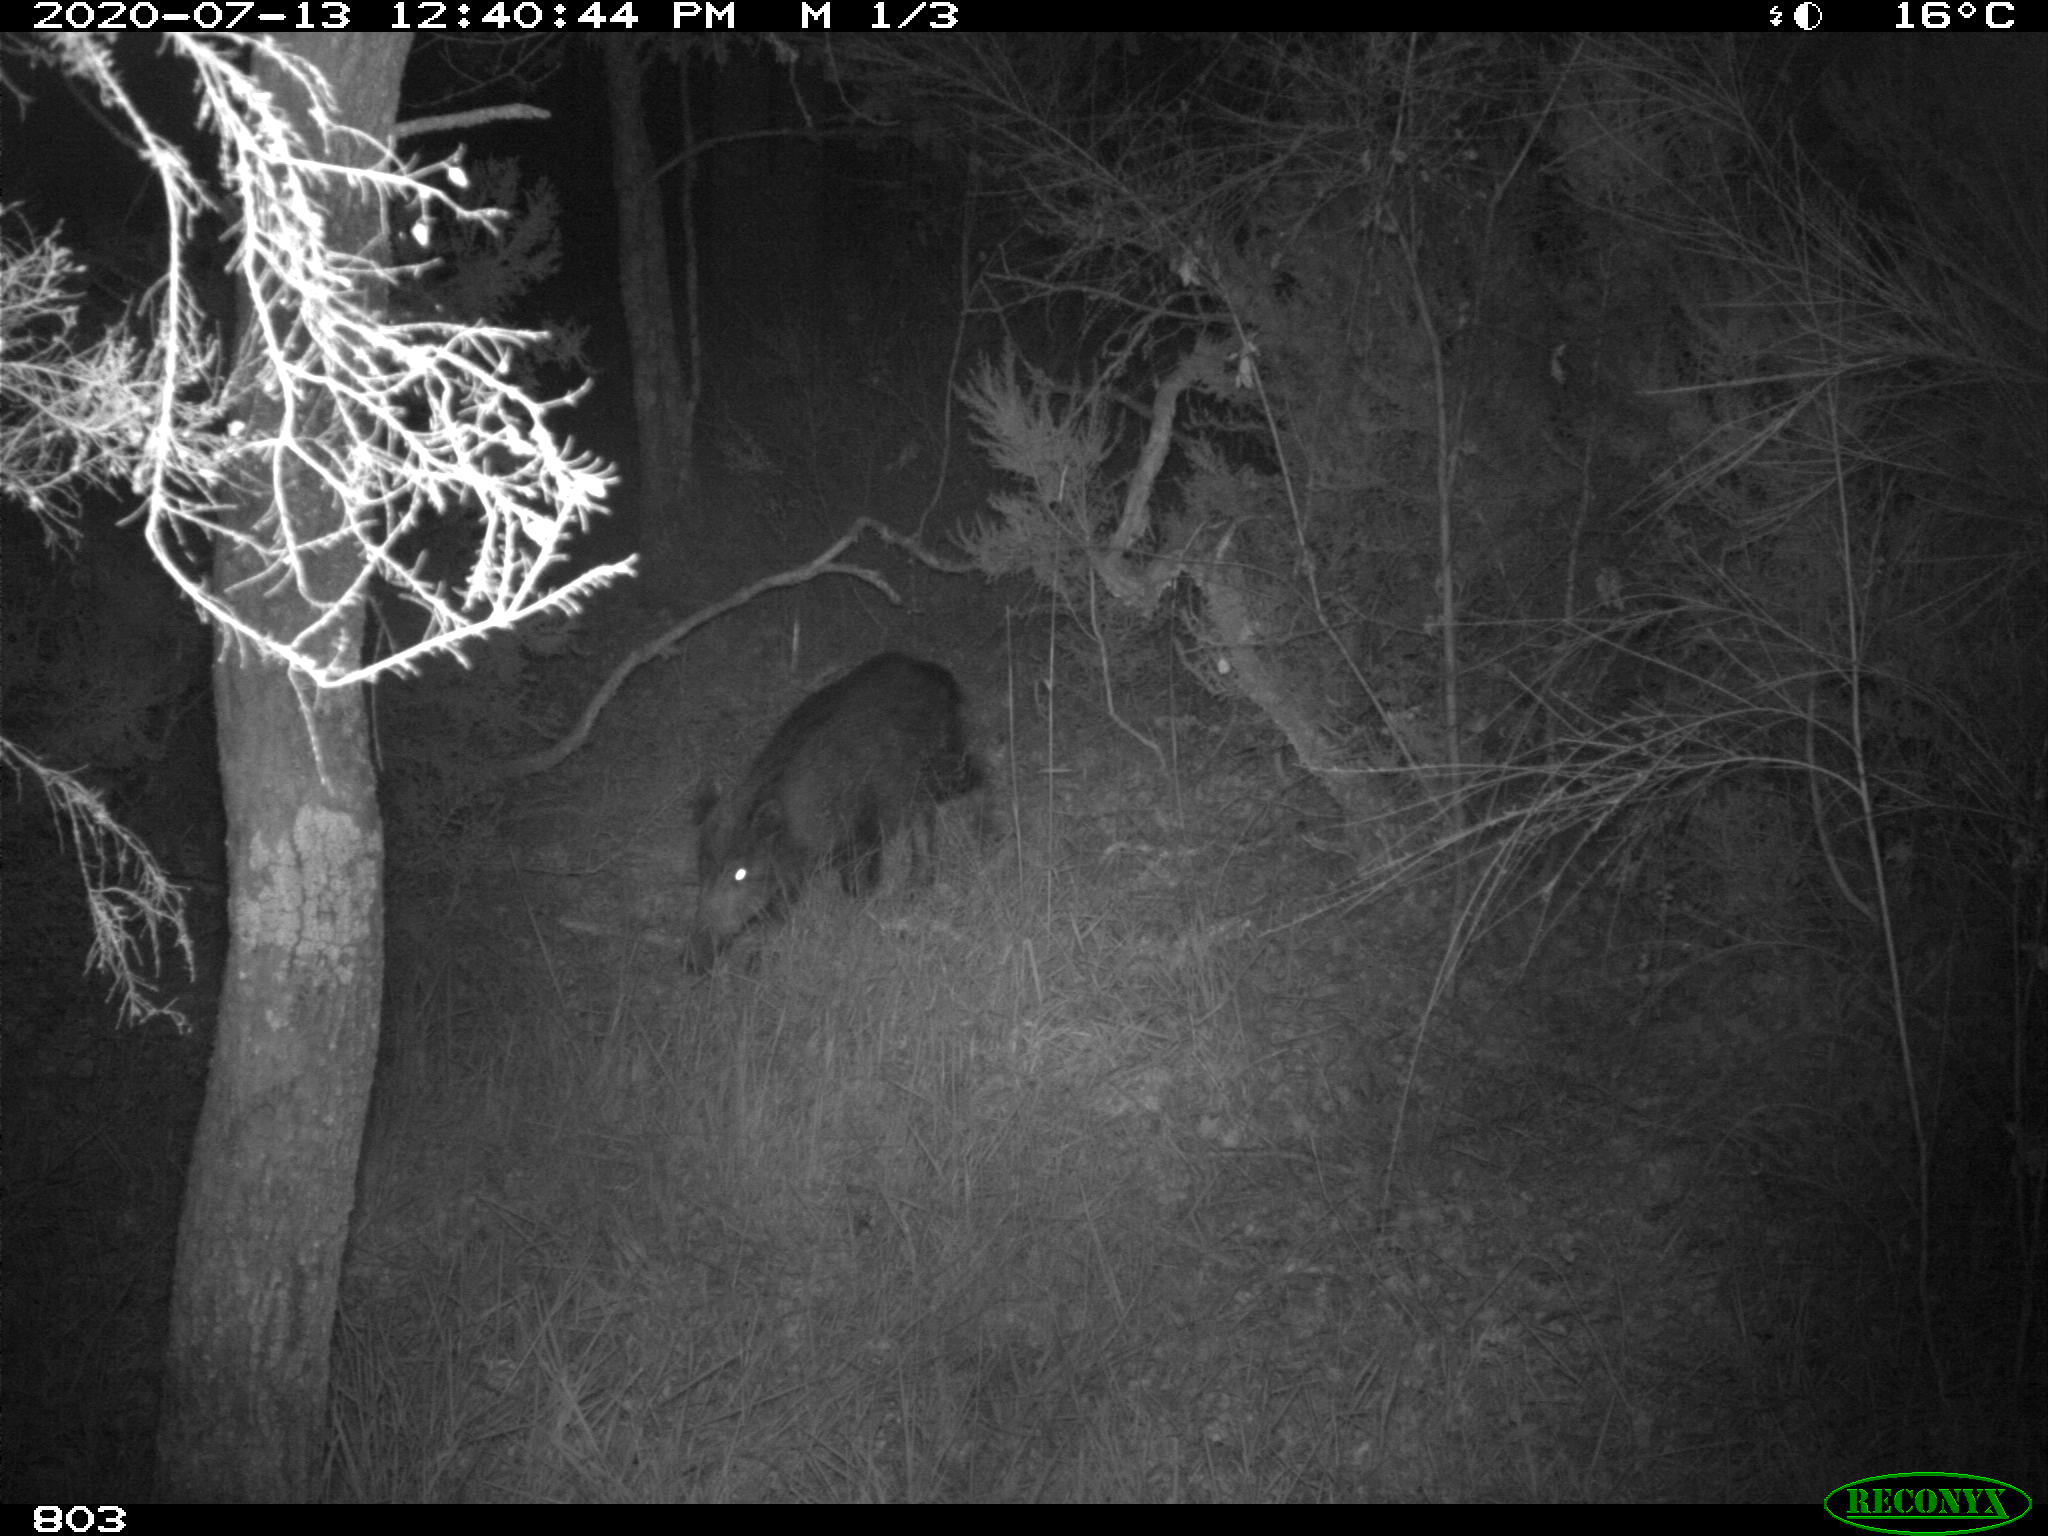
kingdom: Animalia
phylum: Chordata
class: Mammalia
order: Artiodactyla
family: Suidae
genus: Sus
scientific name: Sus scrofa
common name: Wild boar
